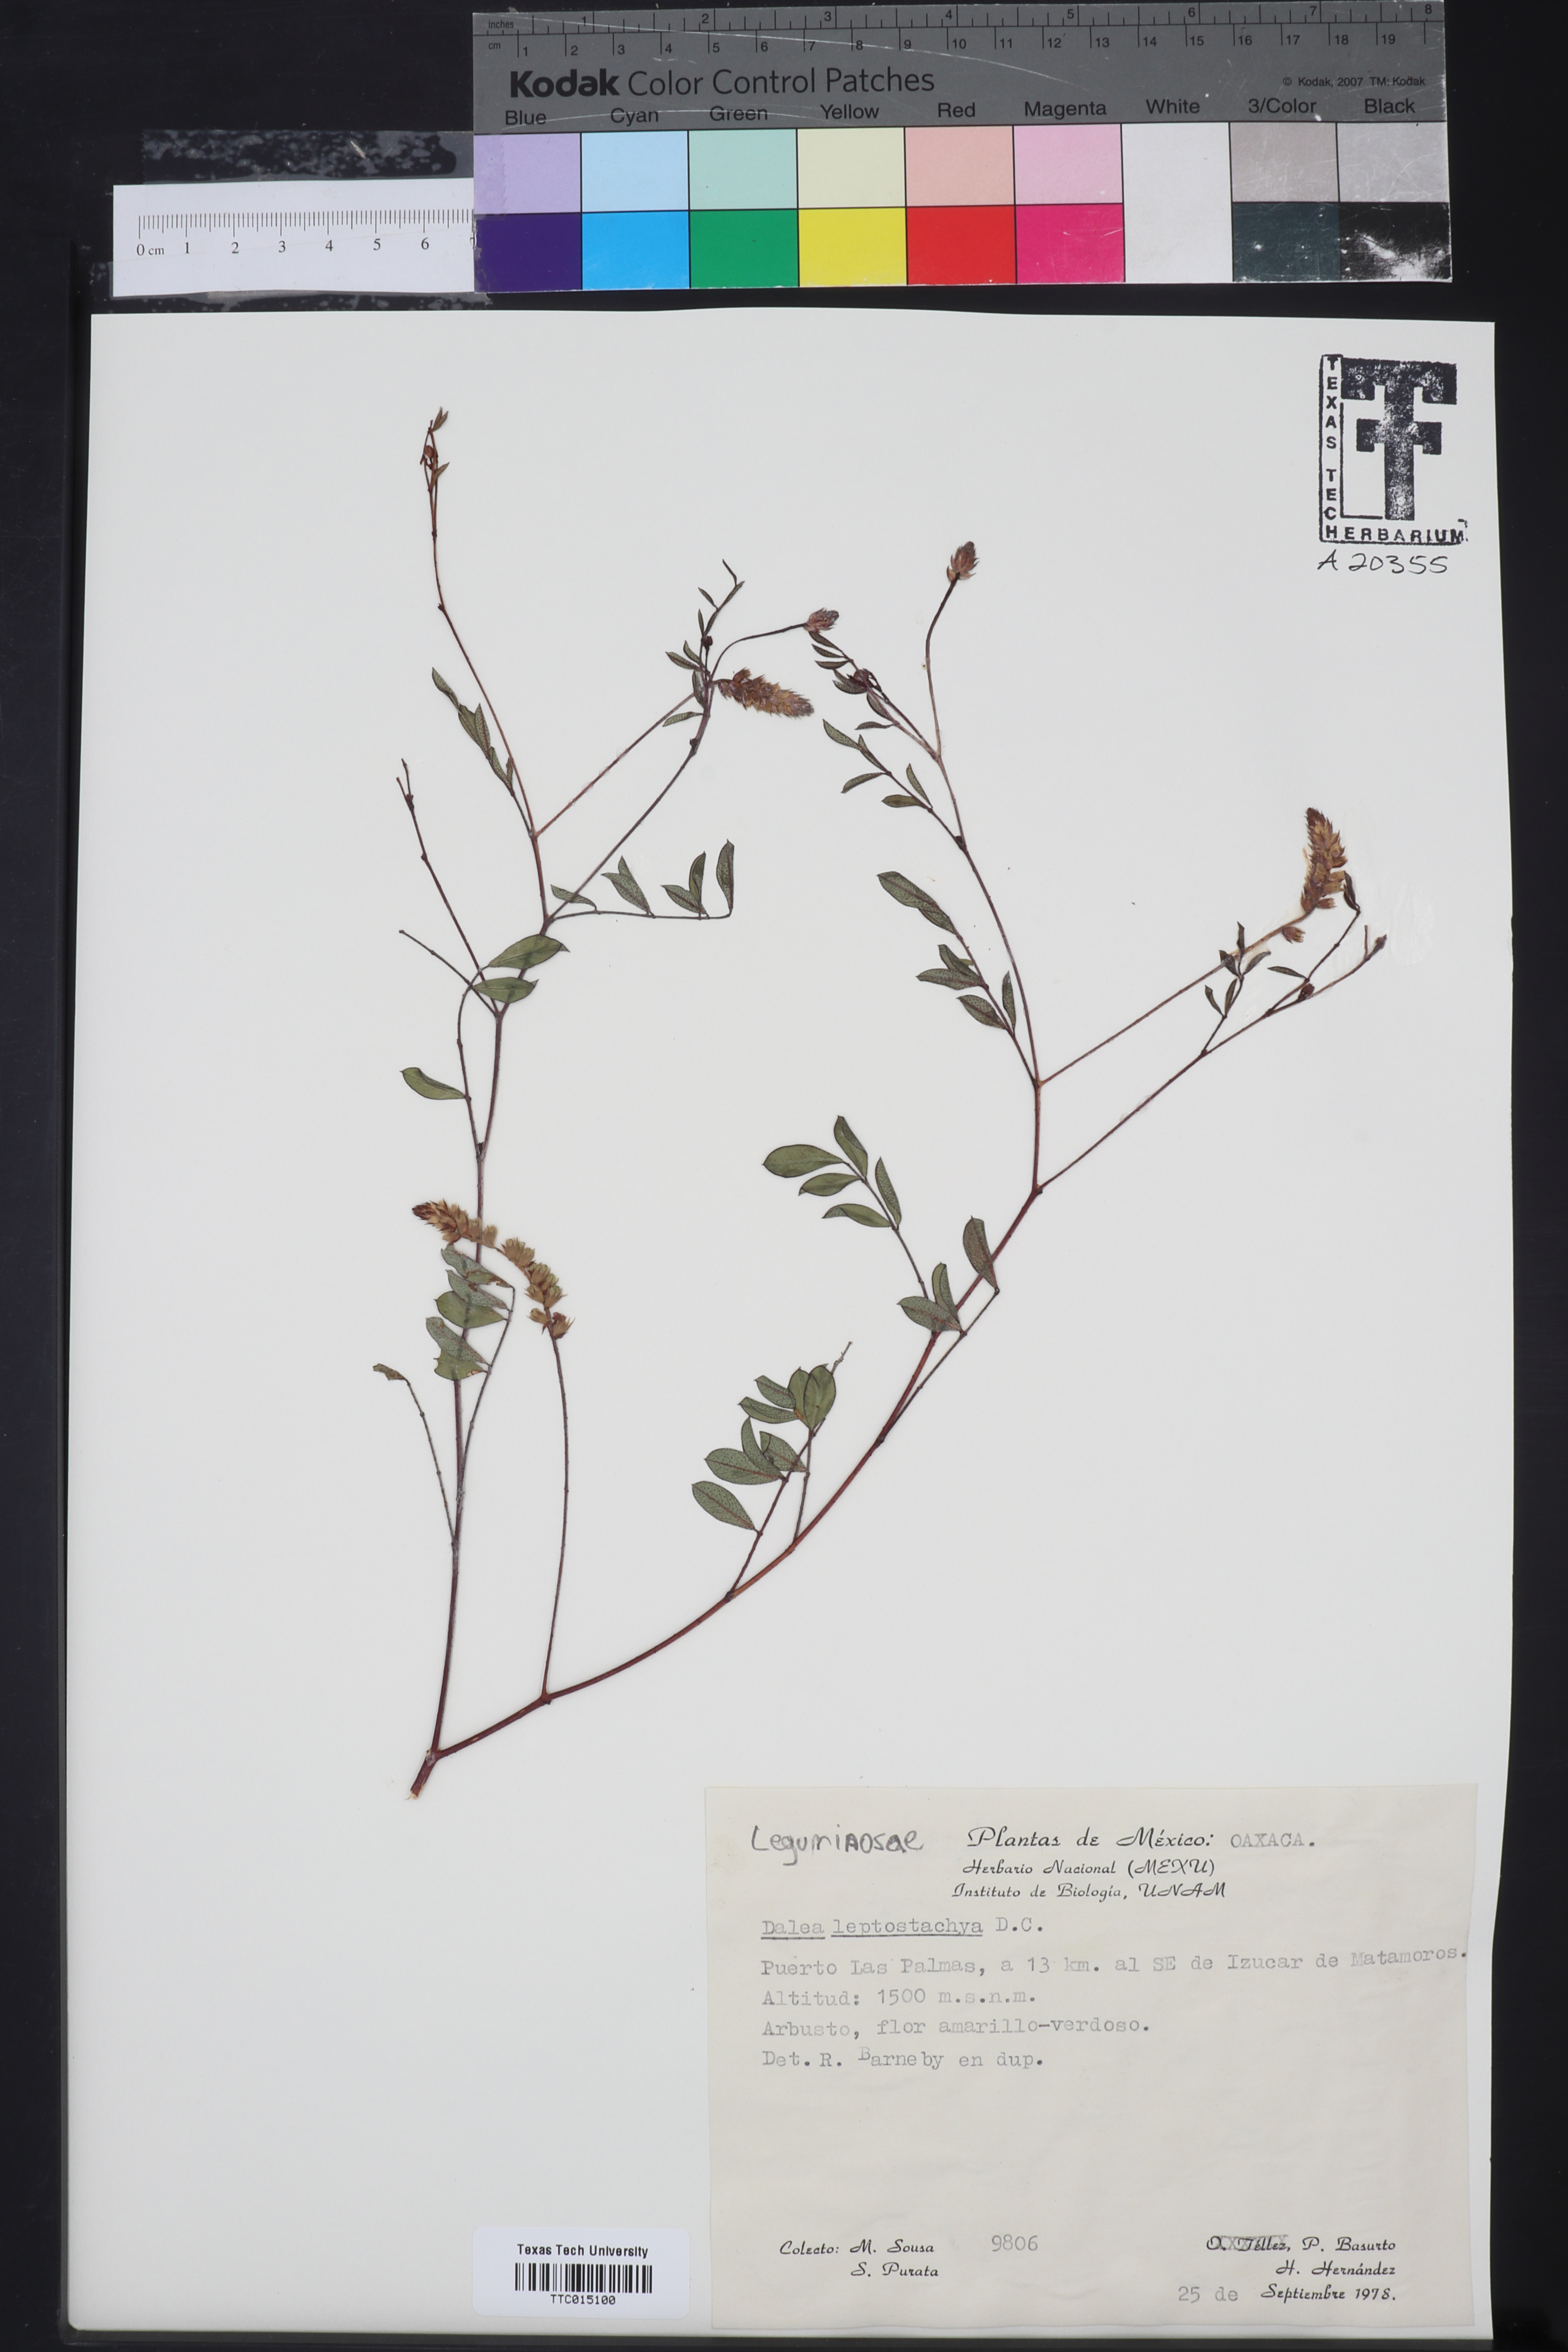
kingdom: Plantae
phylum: Tracheophyta
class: Magnoliopsida
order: Fabales
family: Fabaceae
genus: Dalea
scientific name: Dalea leptostachya
